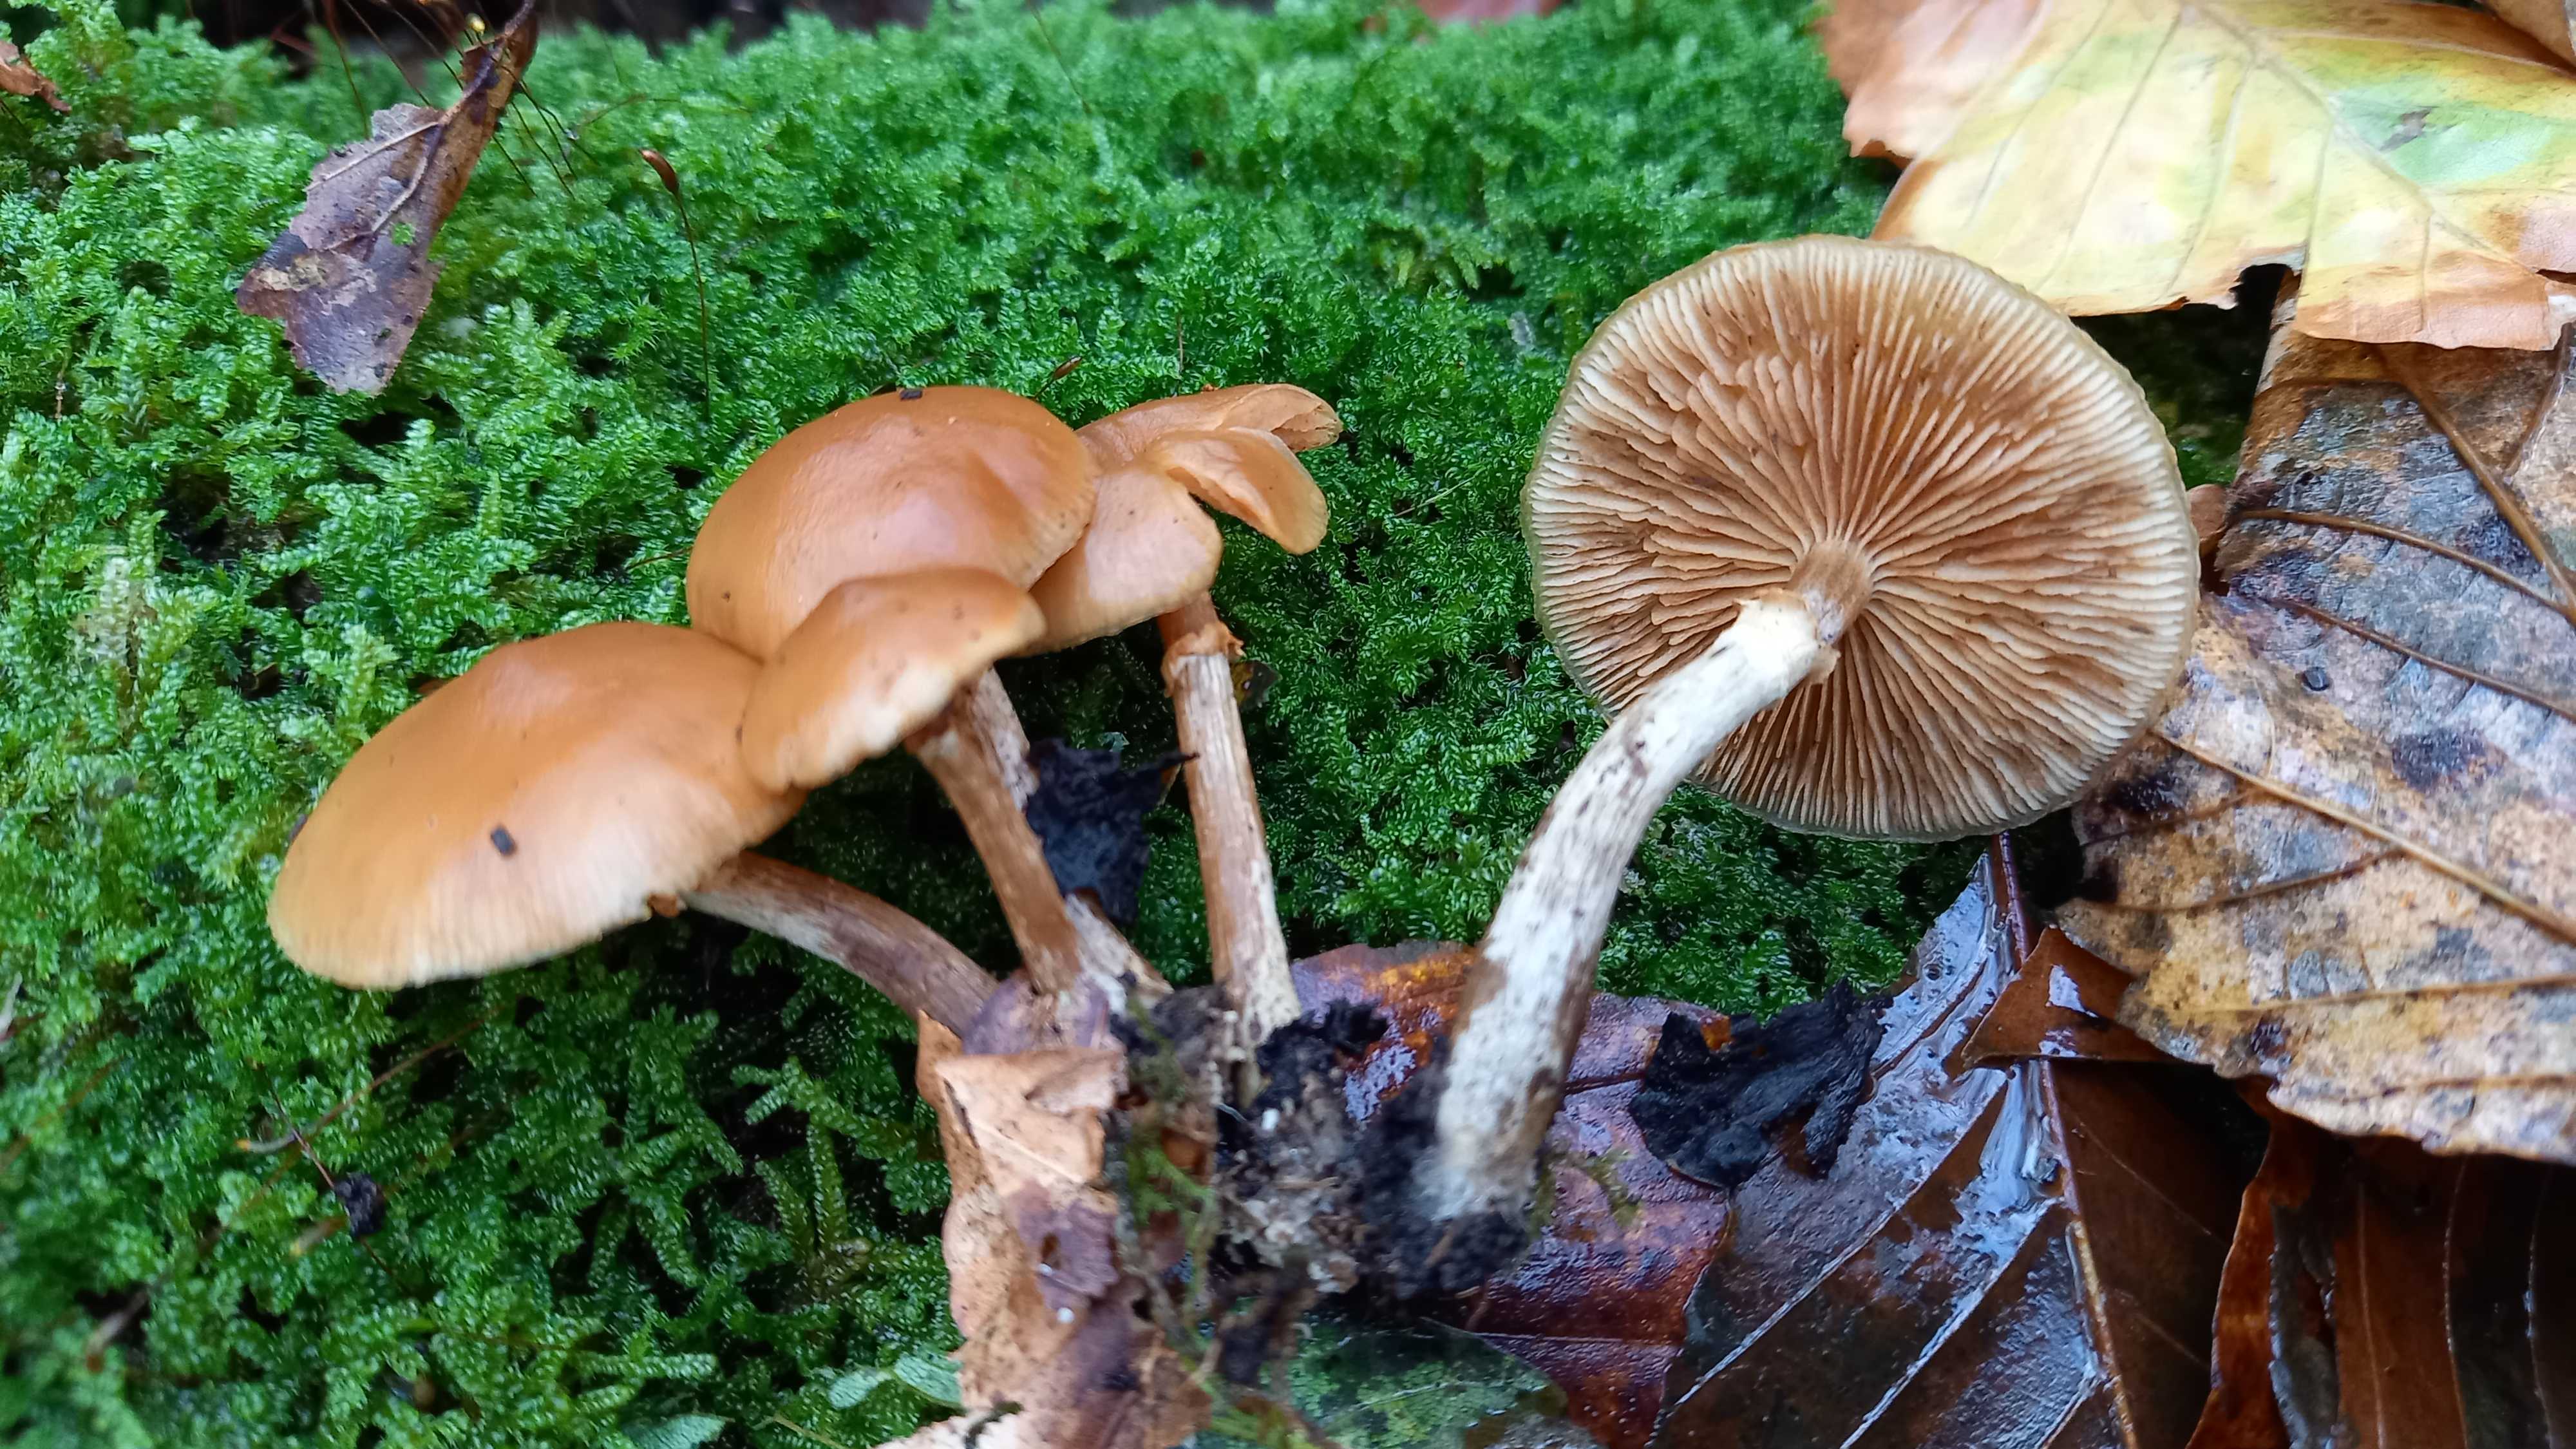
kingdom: Fungi
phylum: Basidiomycota
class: Agaricomycetes
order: Agaricales
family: Hymenogastraceae
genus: Galerina
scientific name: Galerina marginata
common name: randbæltet hjelmhat
